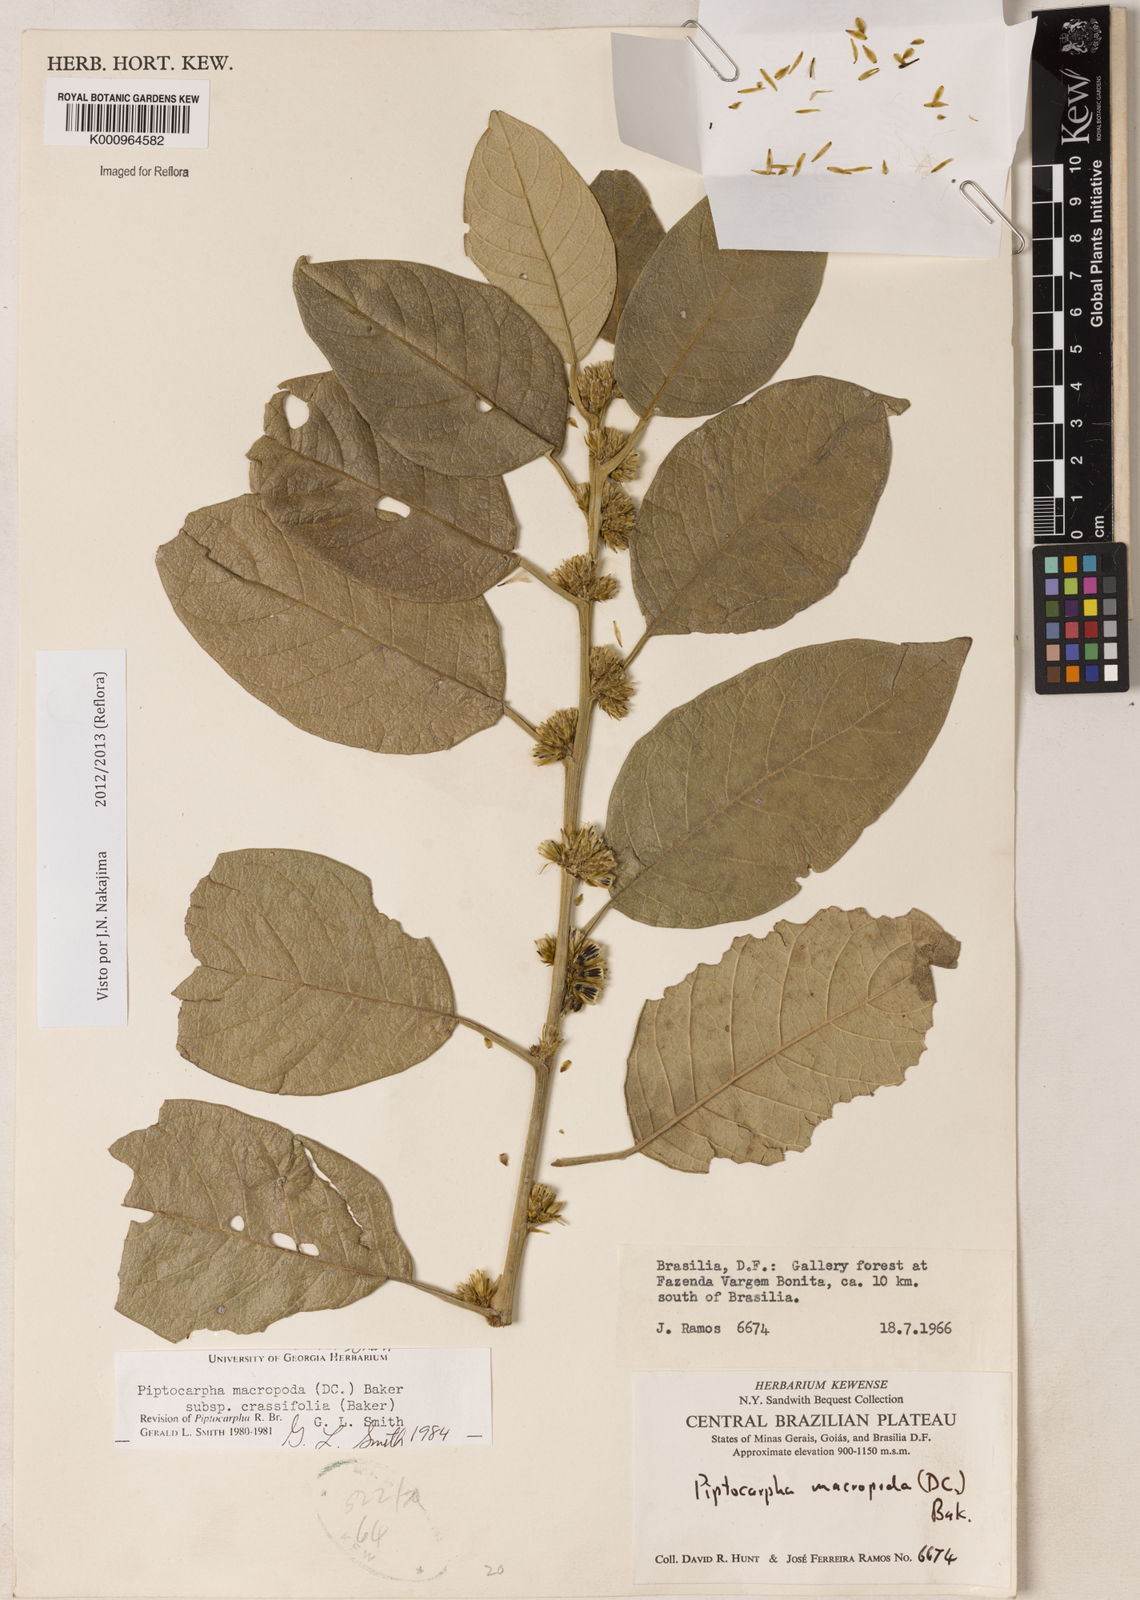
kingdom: Plantae
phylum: Tracheophyta
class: Magnoliopsida
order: Asterales
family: Asteraceae
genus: Piptocarpha
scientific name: Piptocarpha macropoda
